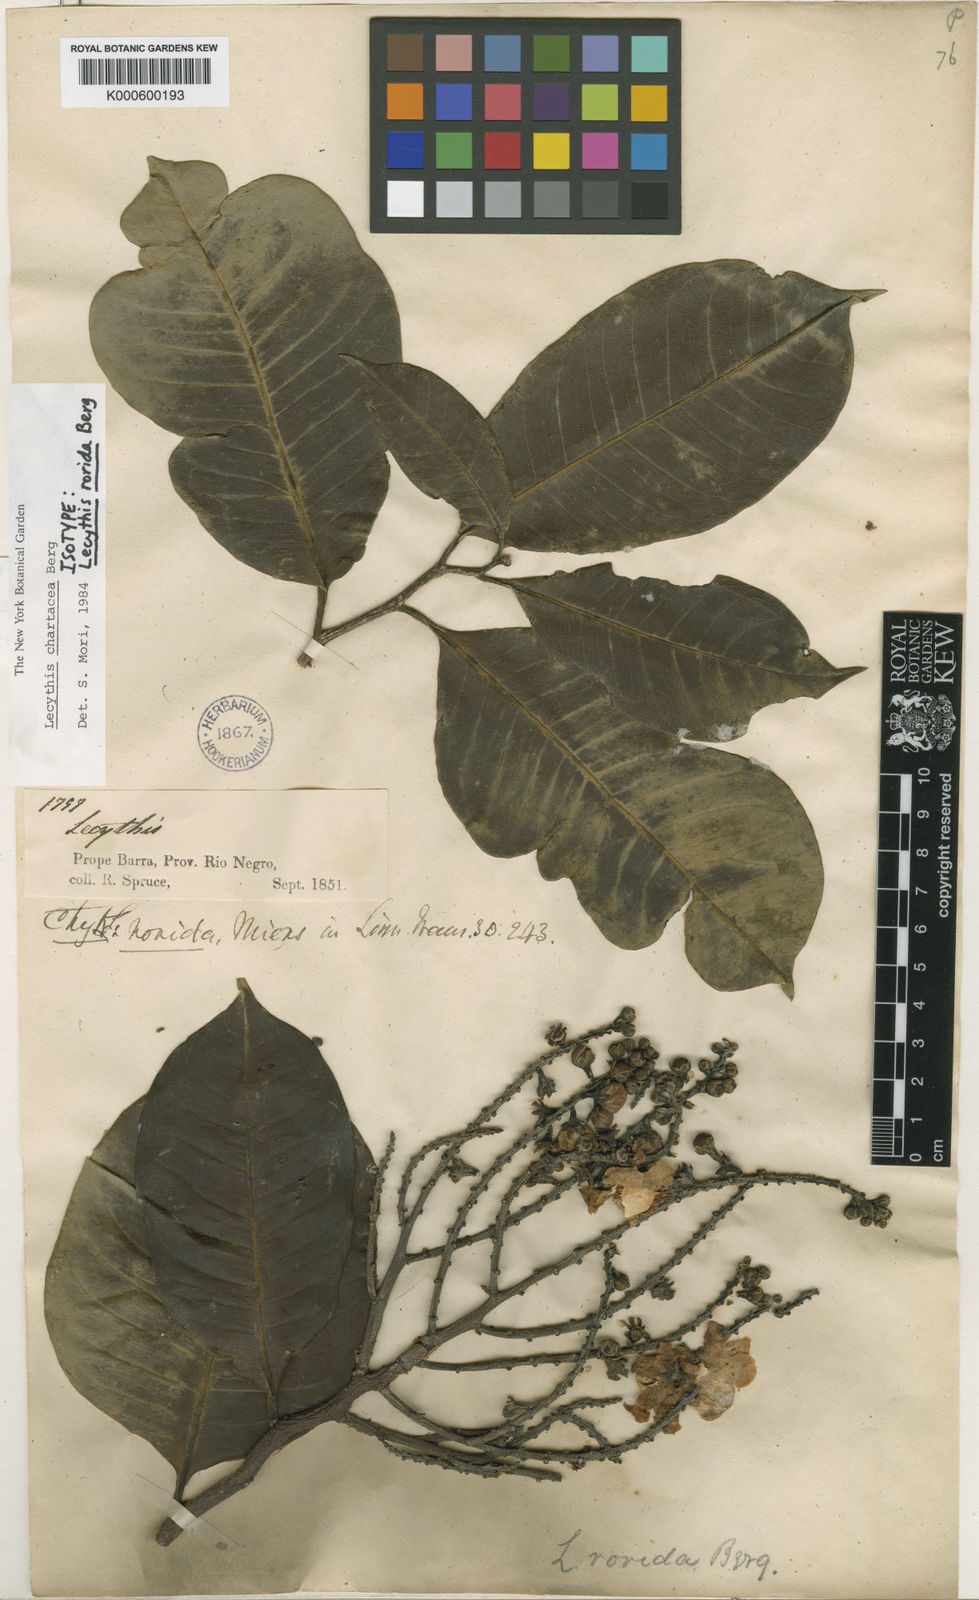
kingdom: Plantae
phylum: Tracheophyta
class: Magnoliopsida
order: Ericales
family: Lecythidaceae
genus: Lecythis
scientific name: Lecythis chartacea
